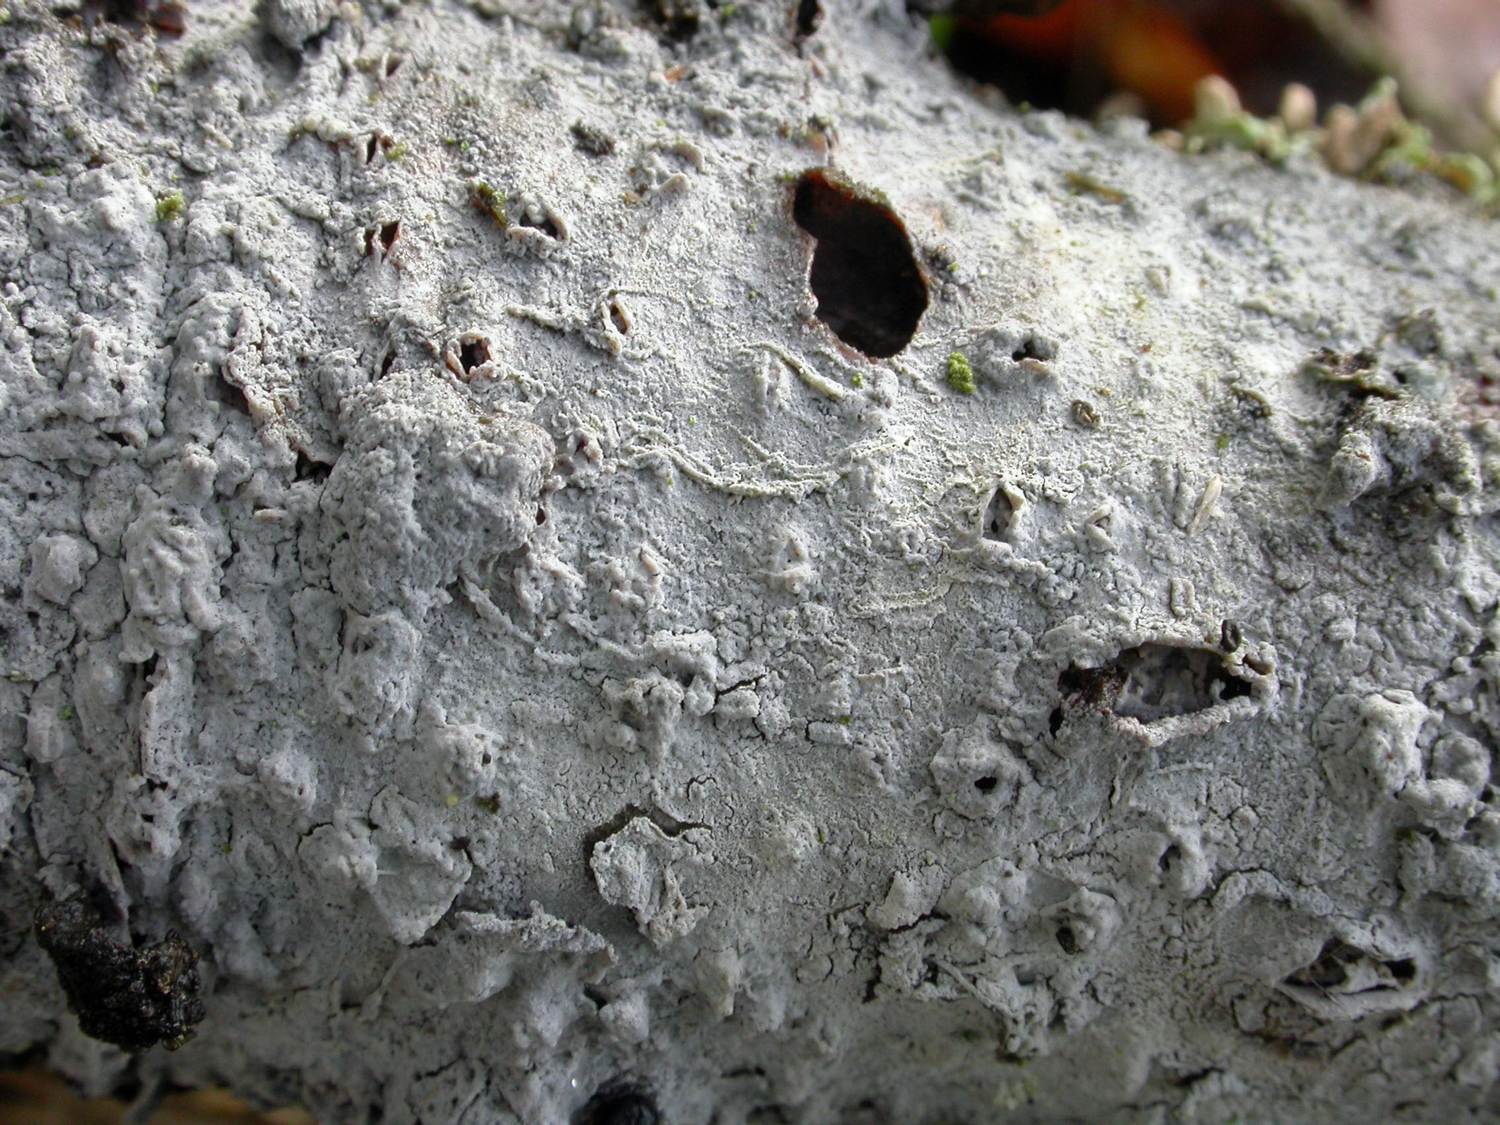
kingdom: Fungi
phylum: Basidiomycota
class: Agaricomycetes
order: Cantharellales
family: Hydnaceae
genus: Sistotrema
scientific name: Sistotrema brinkmannii
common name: bønnesporet kroneskorpe
